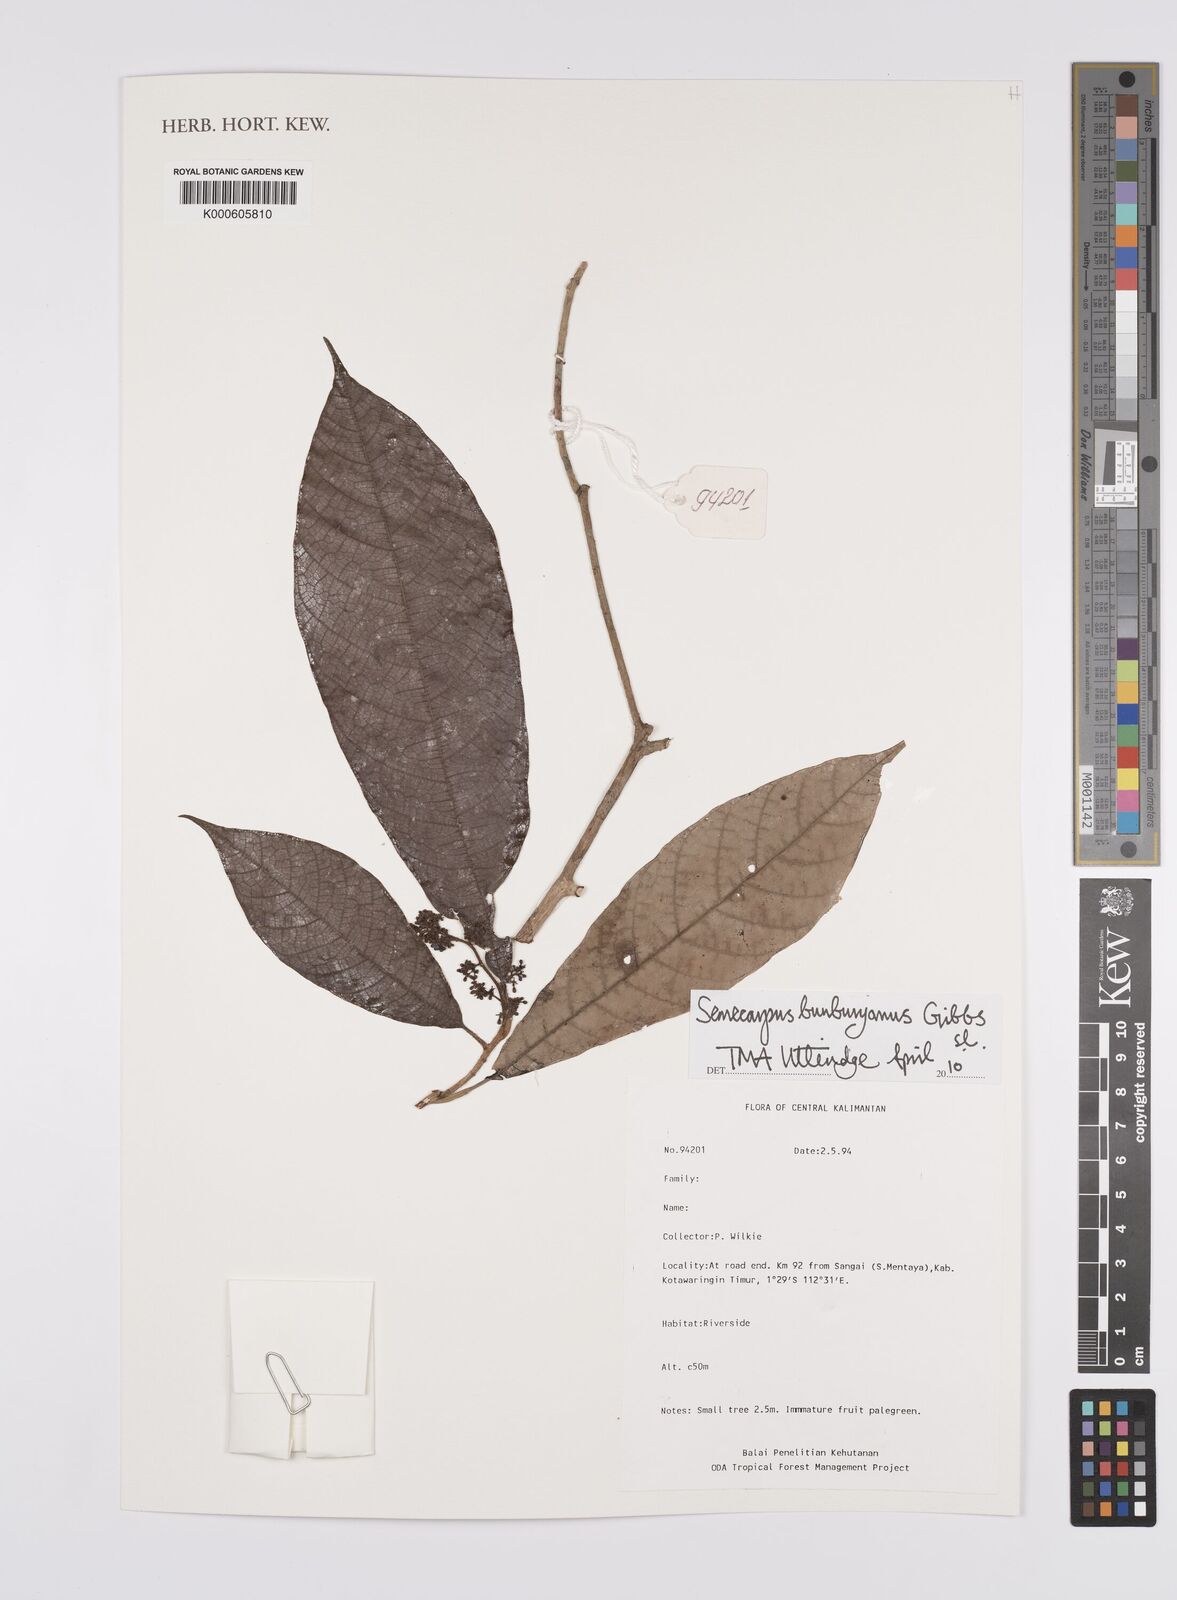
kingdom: Plantae
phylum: Tracheophyta
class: Magnoliopsida
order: Sapindales
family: Anacardiaceae
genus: Semecarpus
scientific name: Semecarpus bunburyanus
